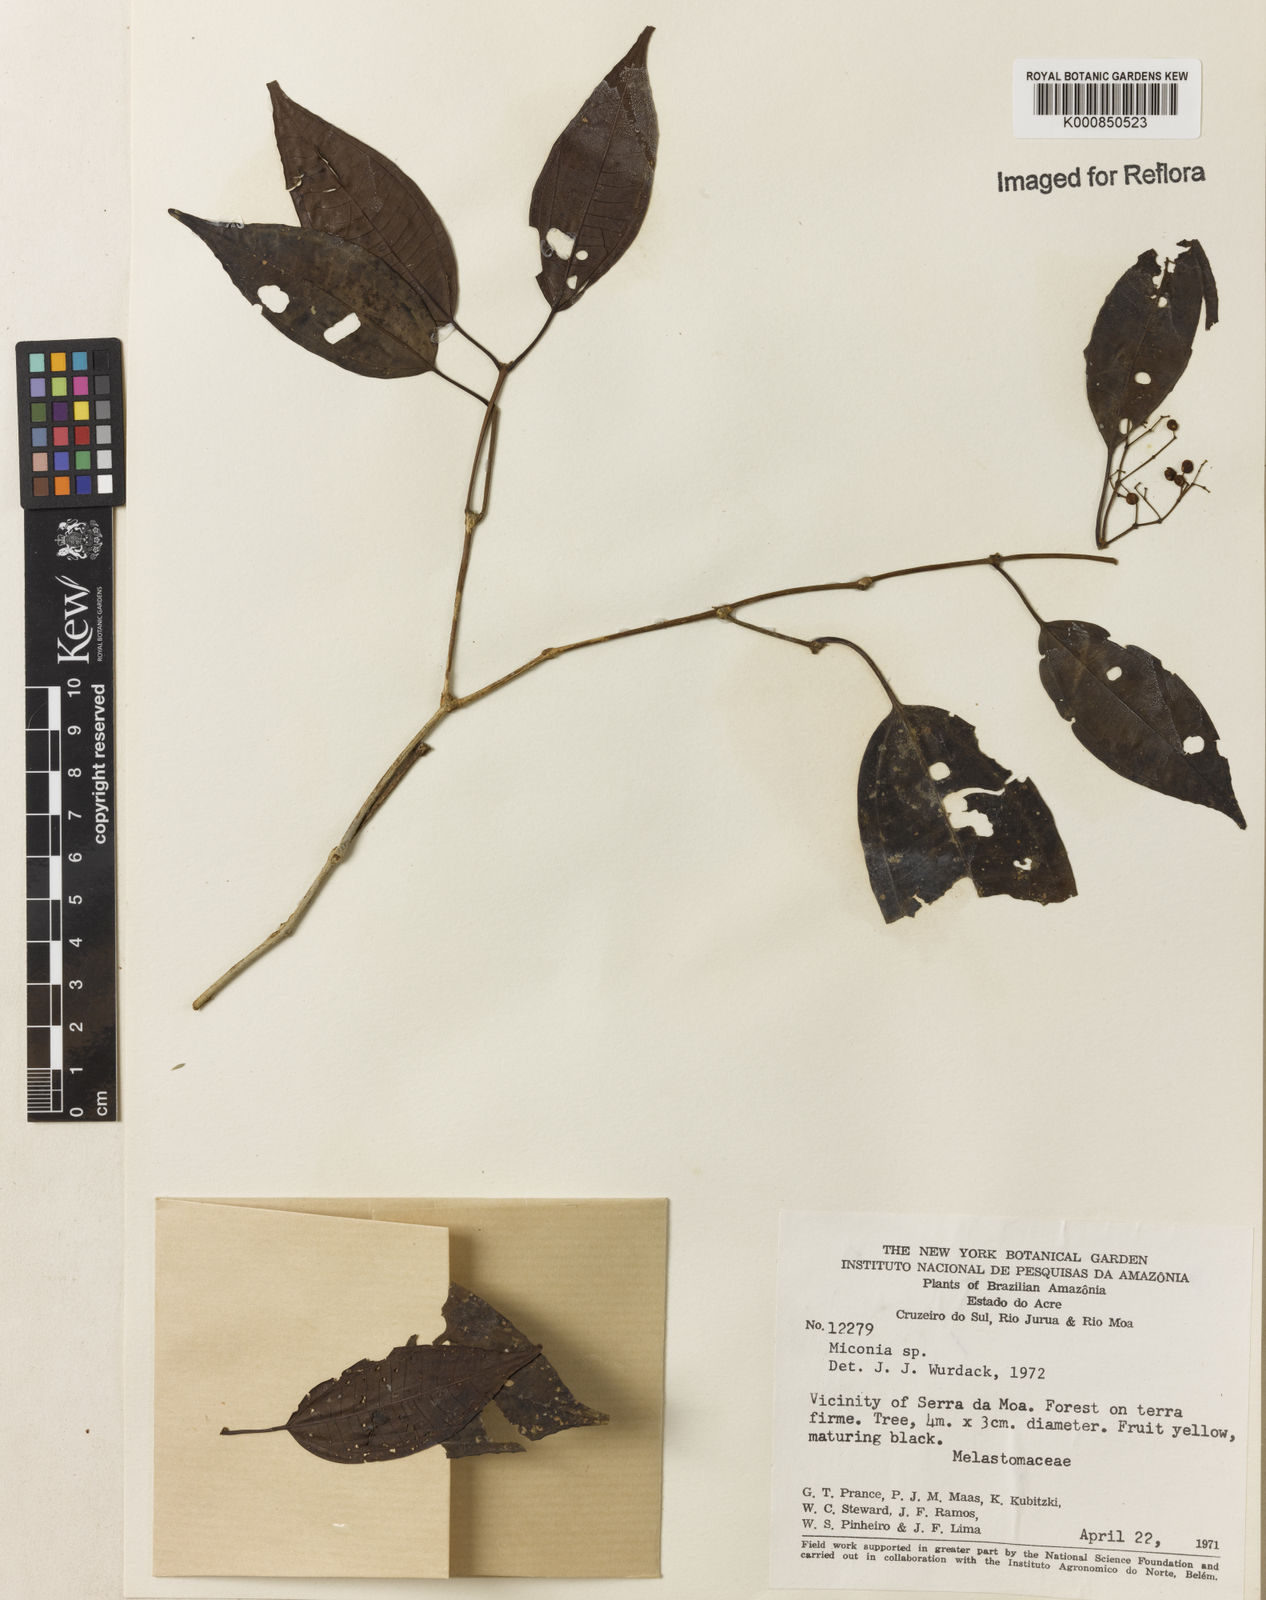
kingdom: Plantae
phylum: Tracheophyta
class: Magnoliopsida
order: Myrtales
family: Melastomataceae
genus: Miconia
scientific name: Miconia
